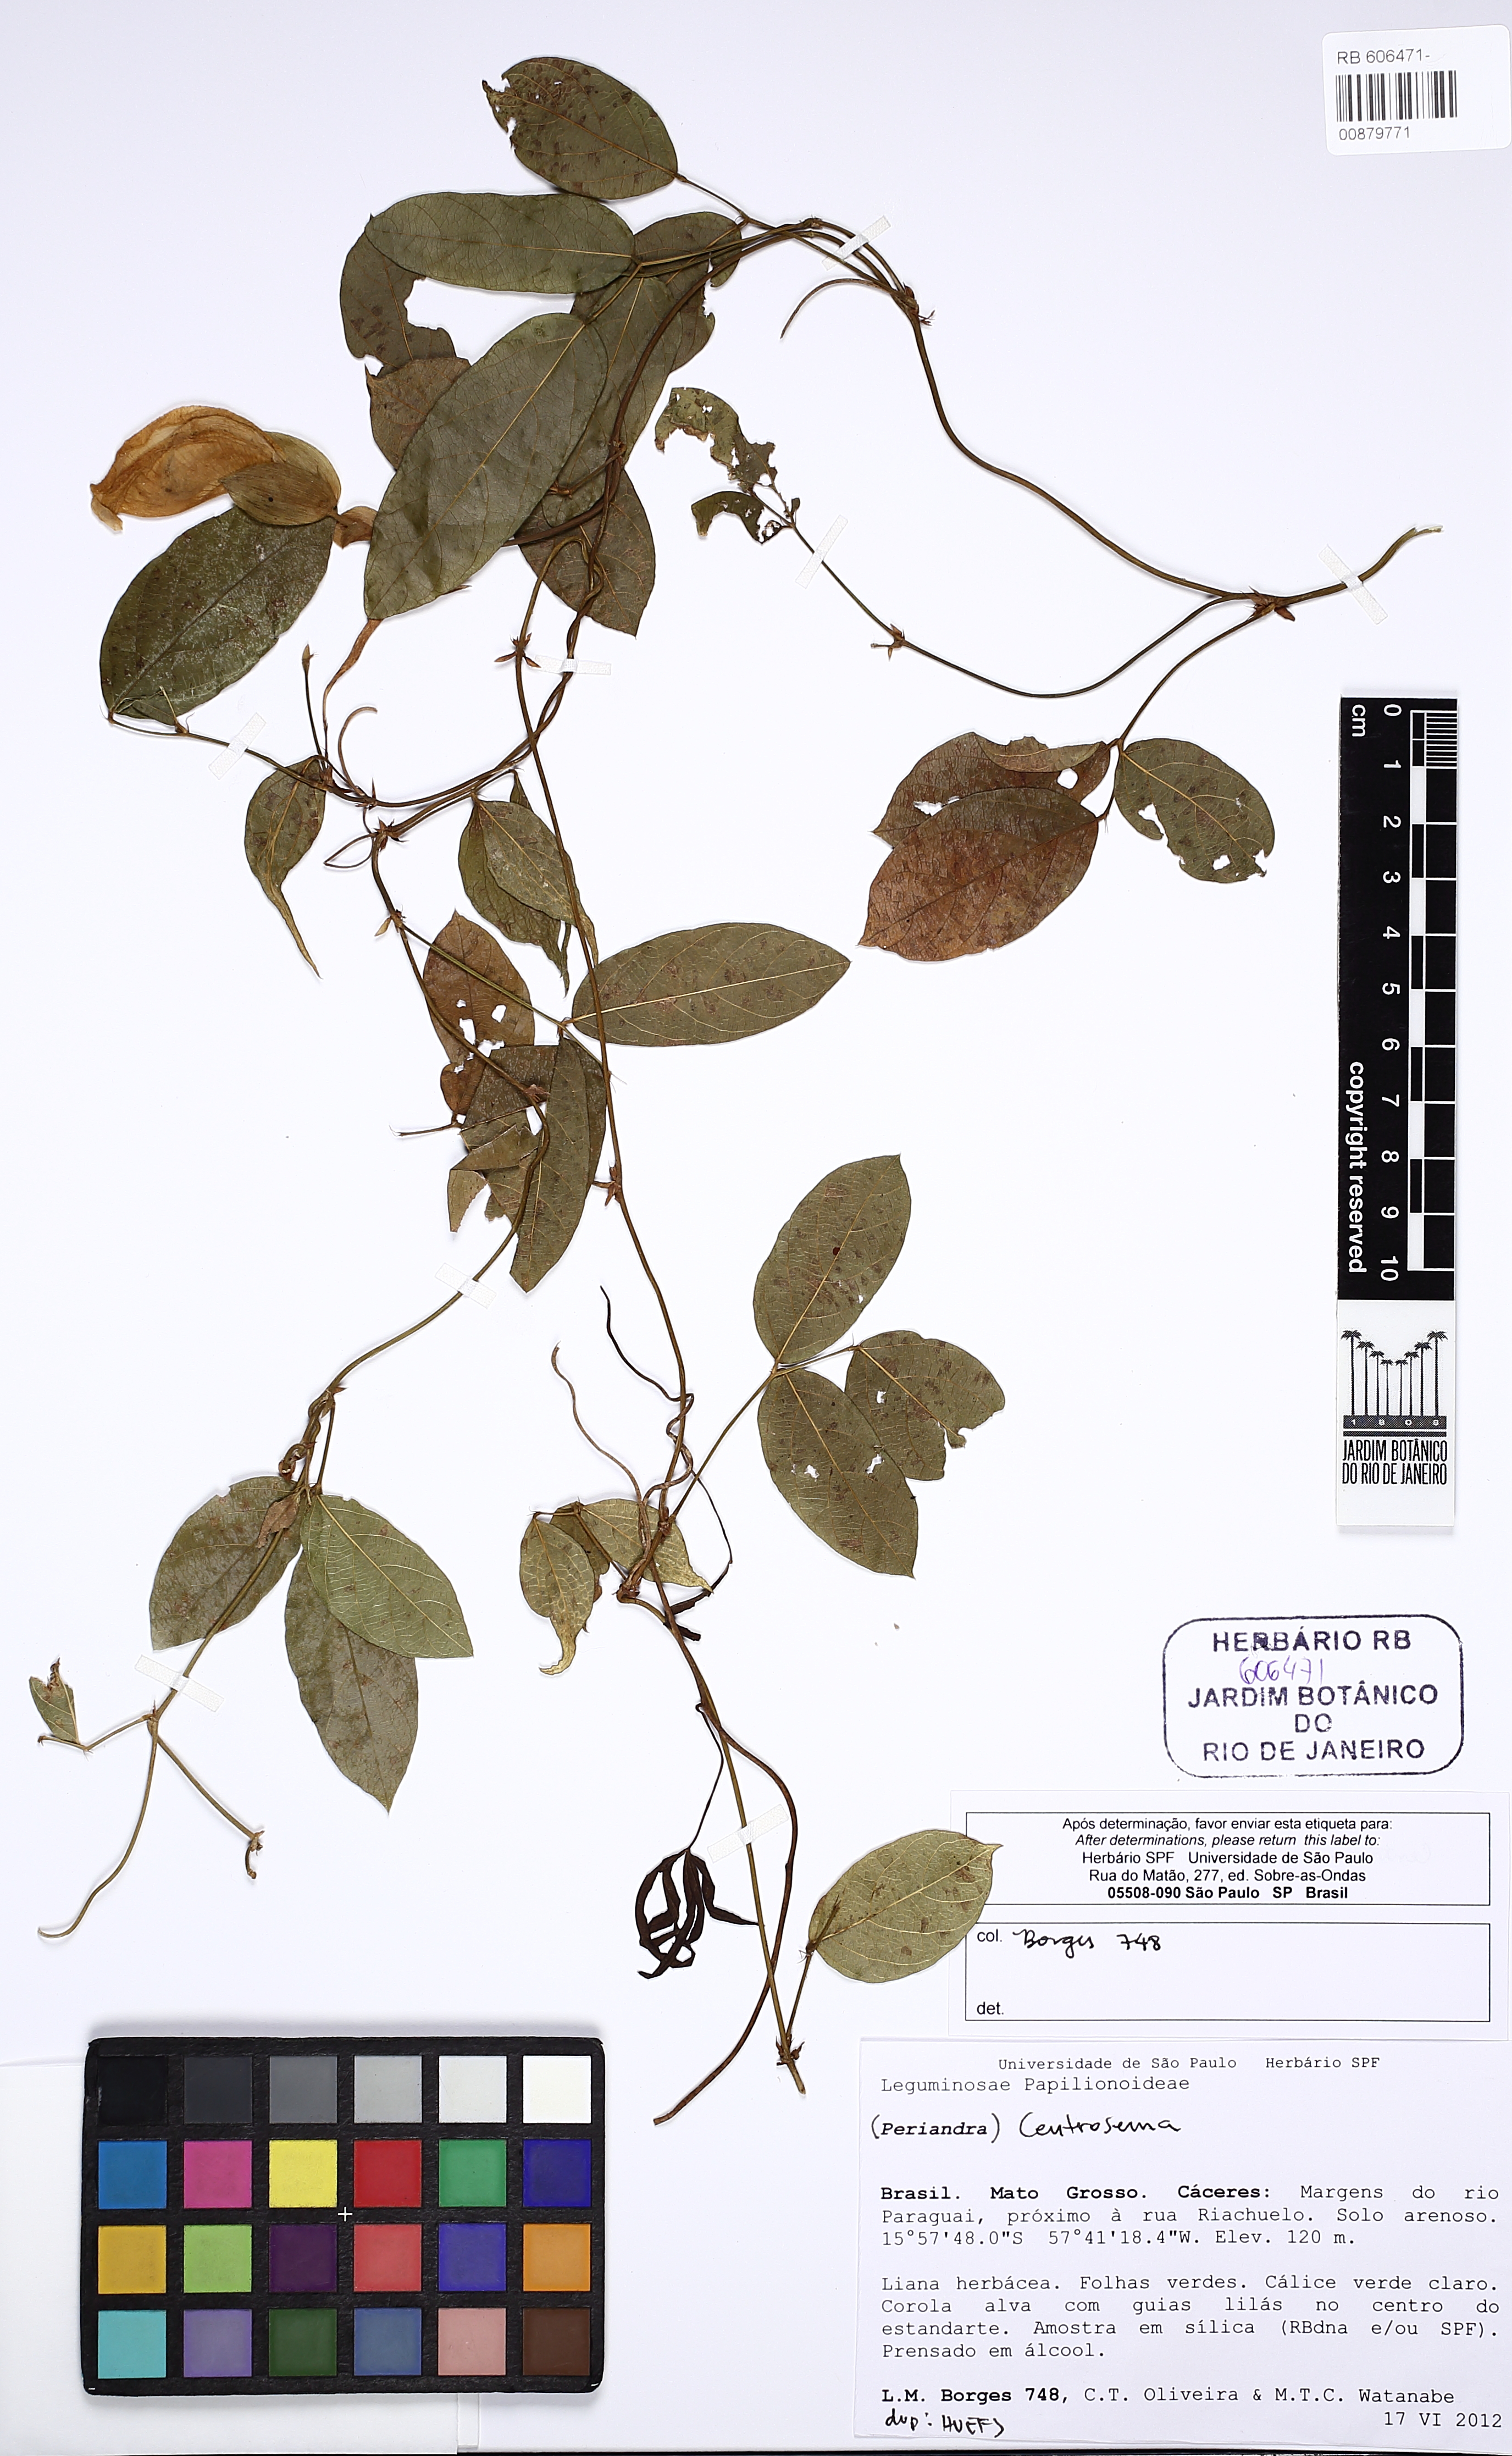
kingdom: Plantae
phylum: Tracheophyta
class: Magnoliopsida
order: Fabales
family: Fabaceae
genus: Centrosema
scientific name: Centrosema
